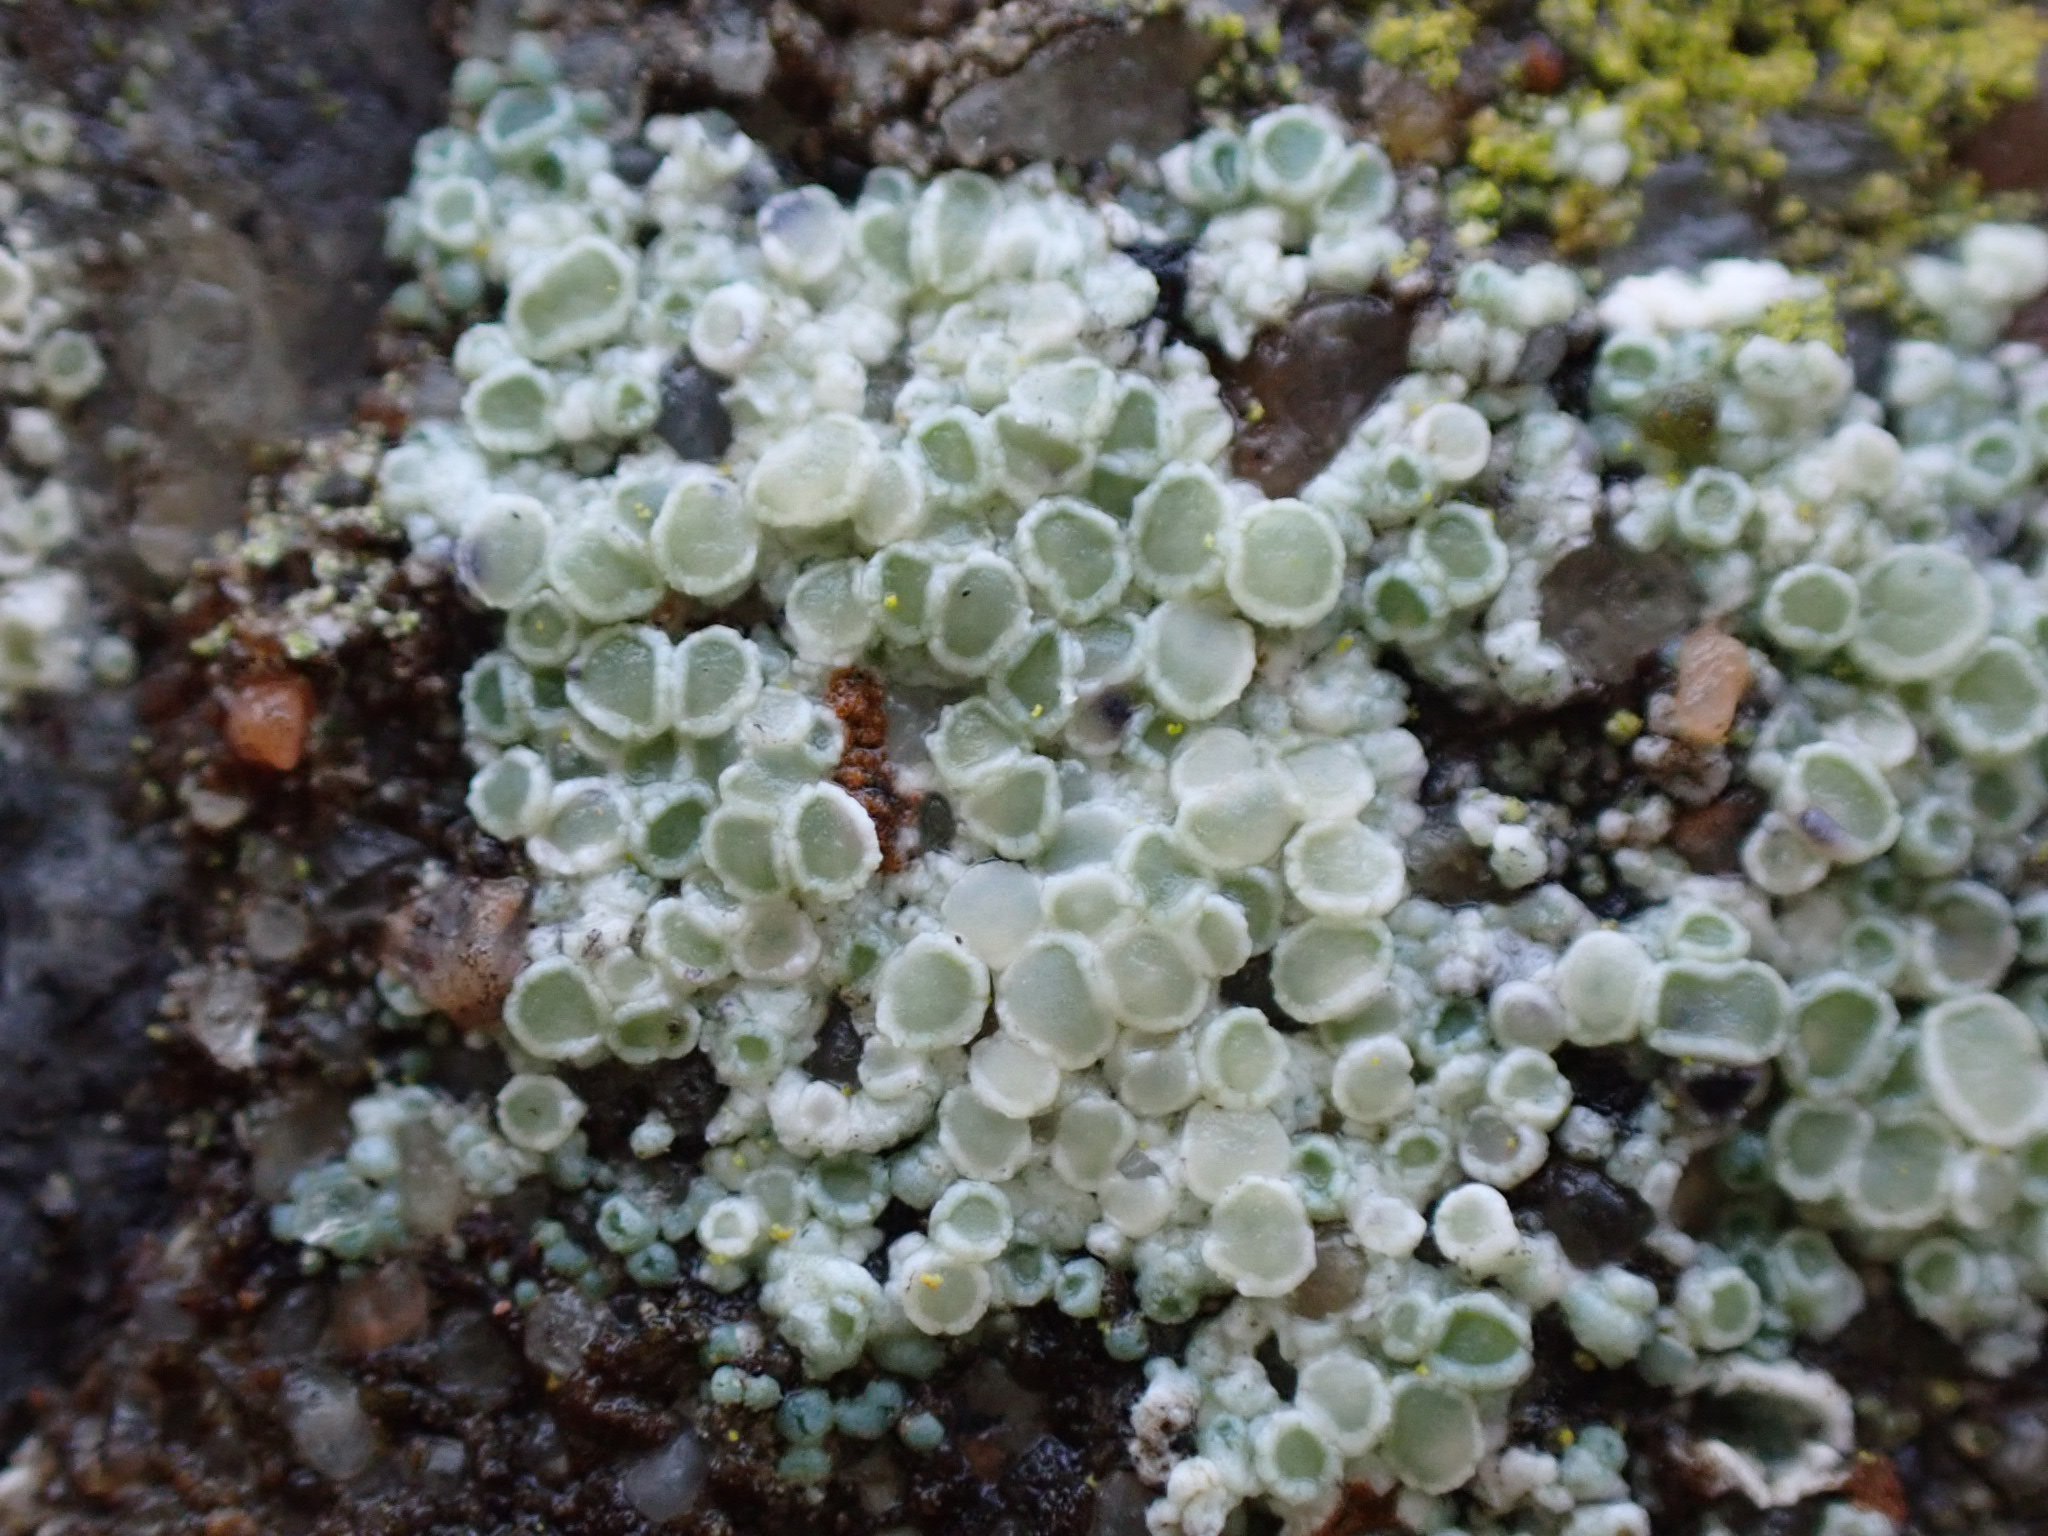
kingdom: Fungi
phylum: Ascomycota
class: Lecanoromycetes
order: Lecanorales
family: Lecanoraceae
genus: Polyozosia
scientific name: Polyozosia albescens
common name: cement-kantskivelav
